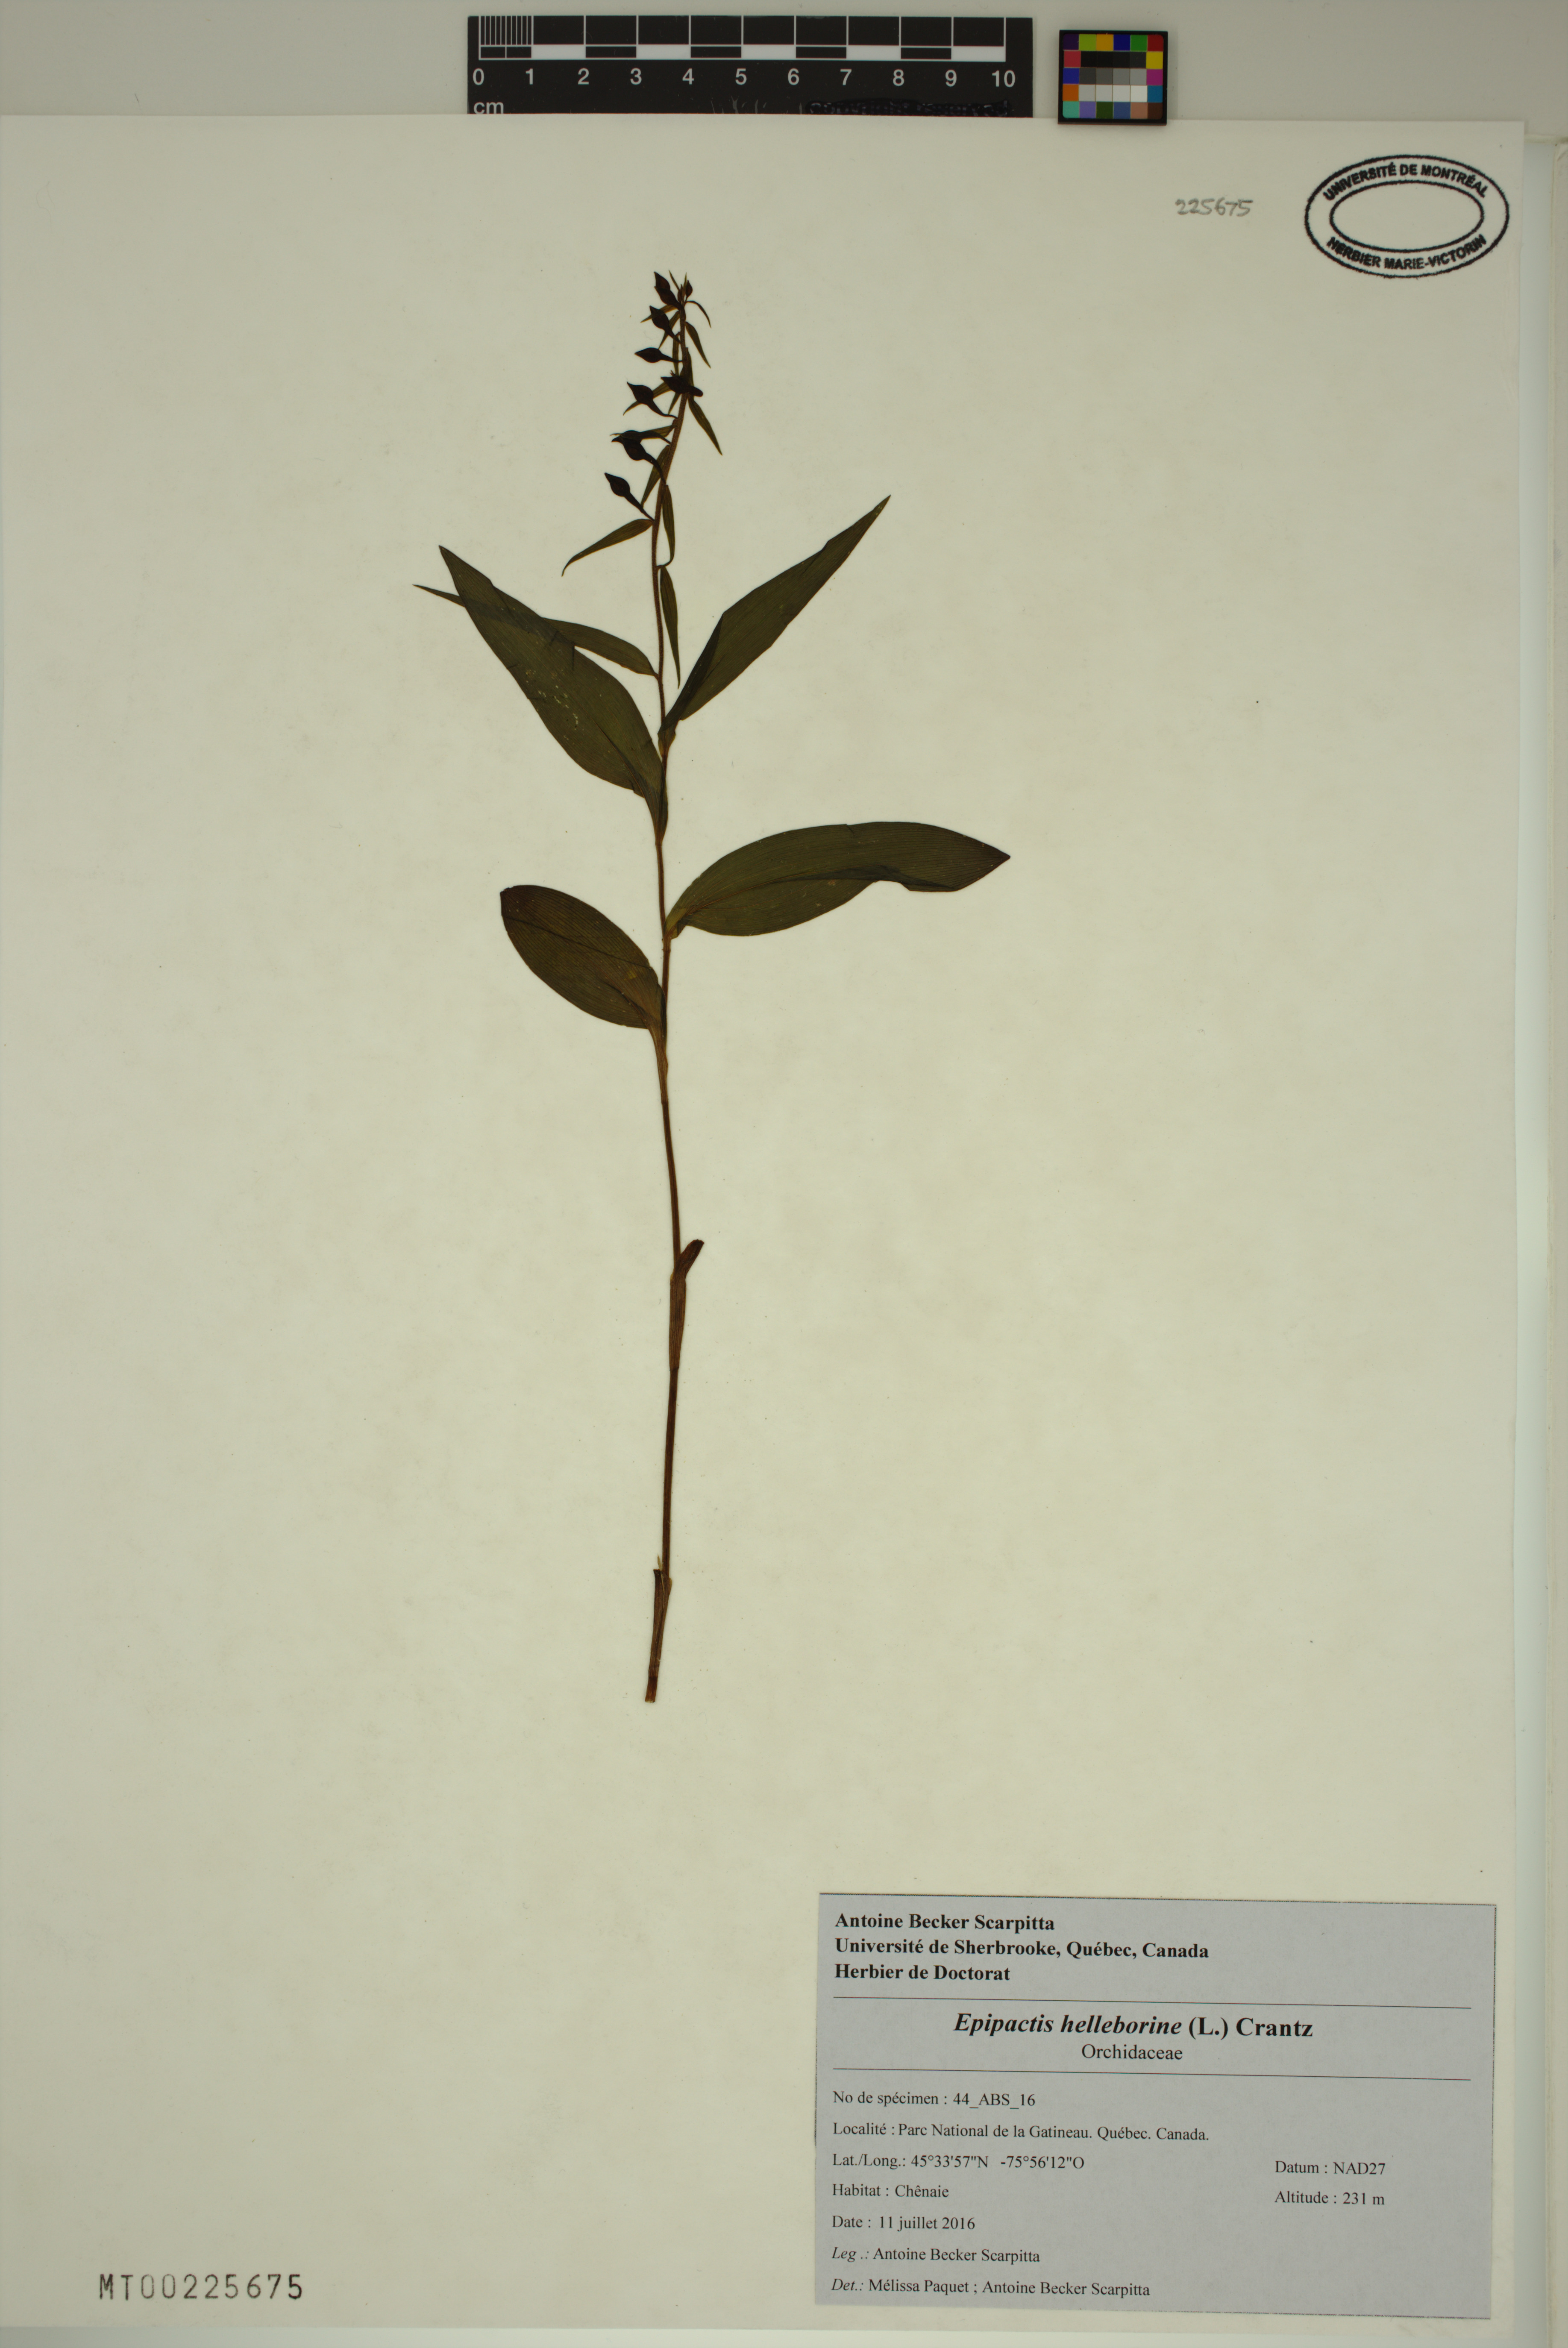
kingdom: Plantae
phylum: Tracheophyta
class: Liliopsida
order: Asparagales
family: Orchidaceae
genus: Epipactis
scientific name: Epipactis helleborine
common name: Broad-leaved helleborine
